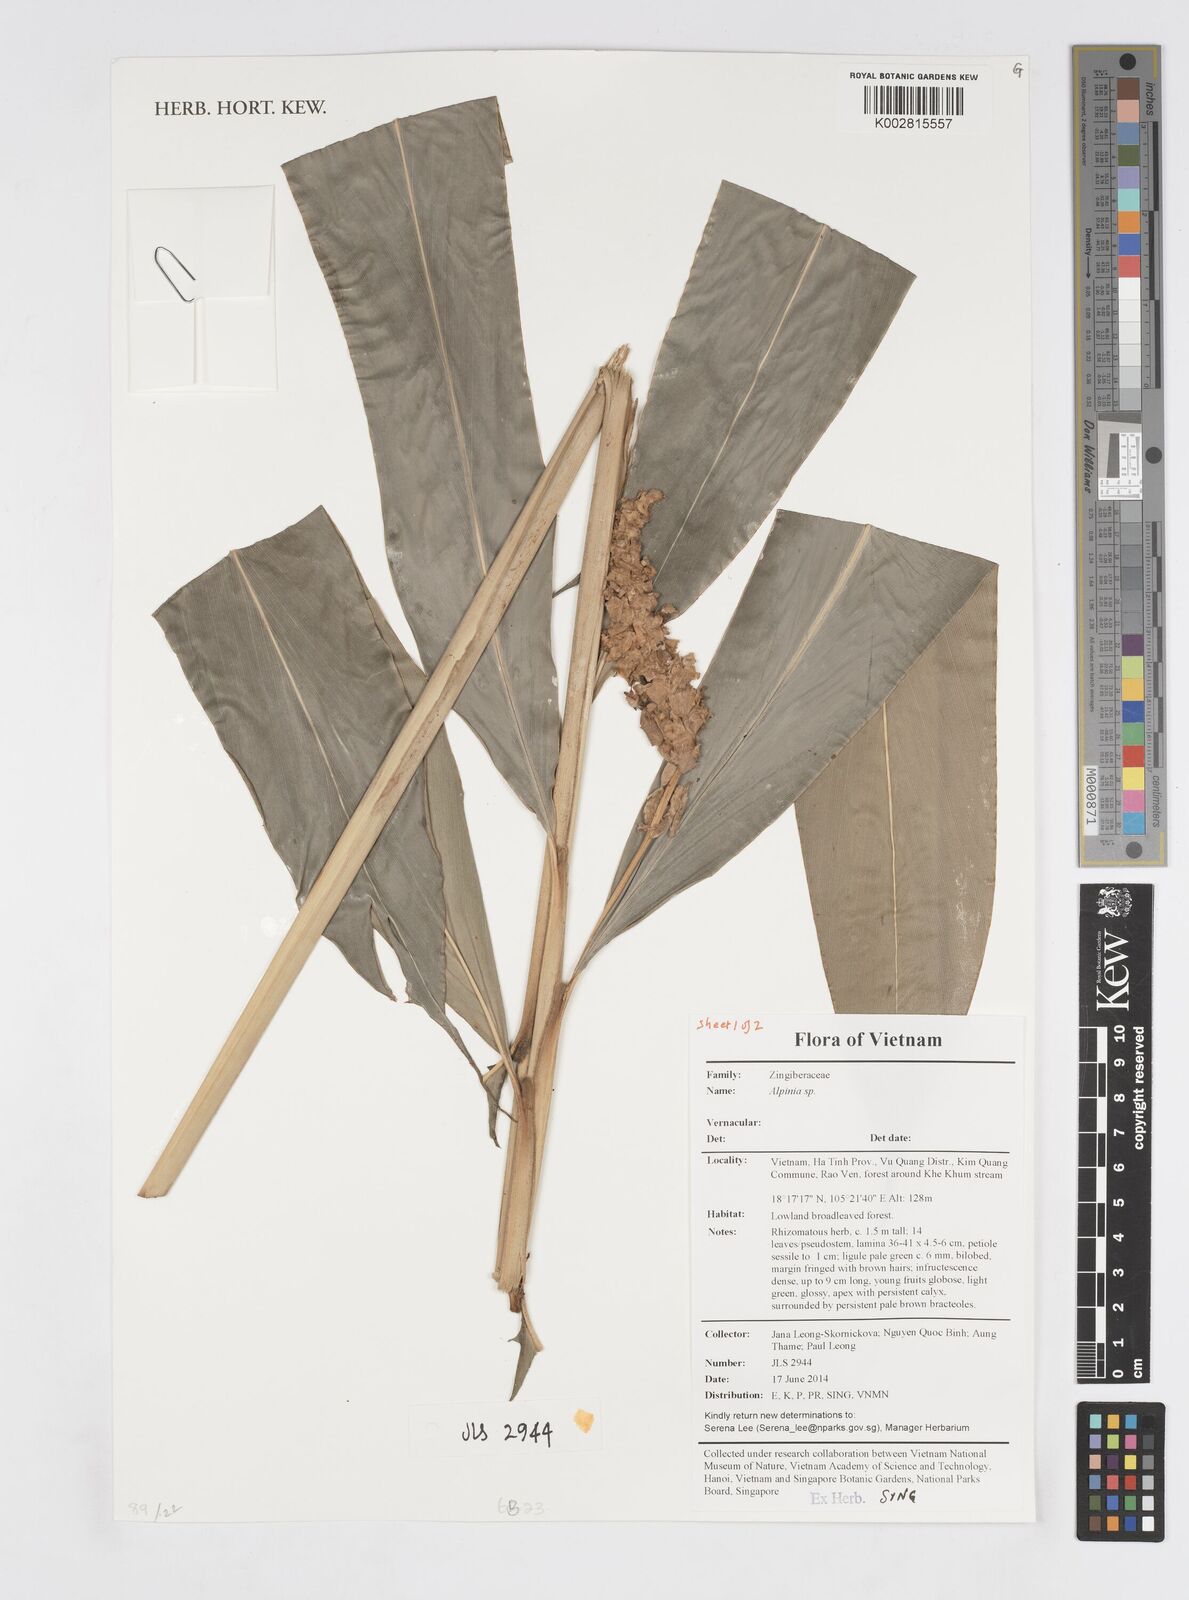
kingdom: Plantae
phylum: Tracheophyta
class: Liliopsida
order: Zingiberales
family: Zingiberaceae
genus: Alpinia
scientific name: Alpinia
